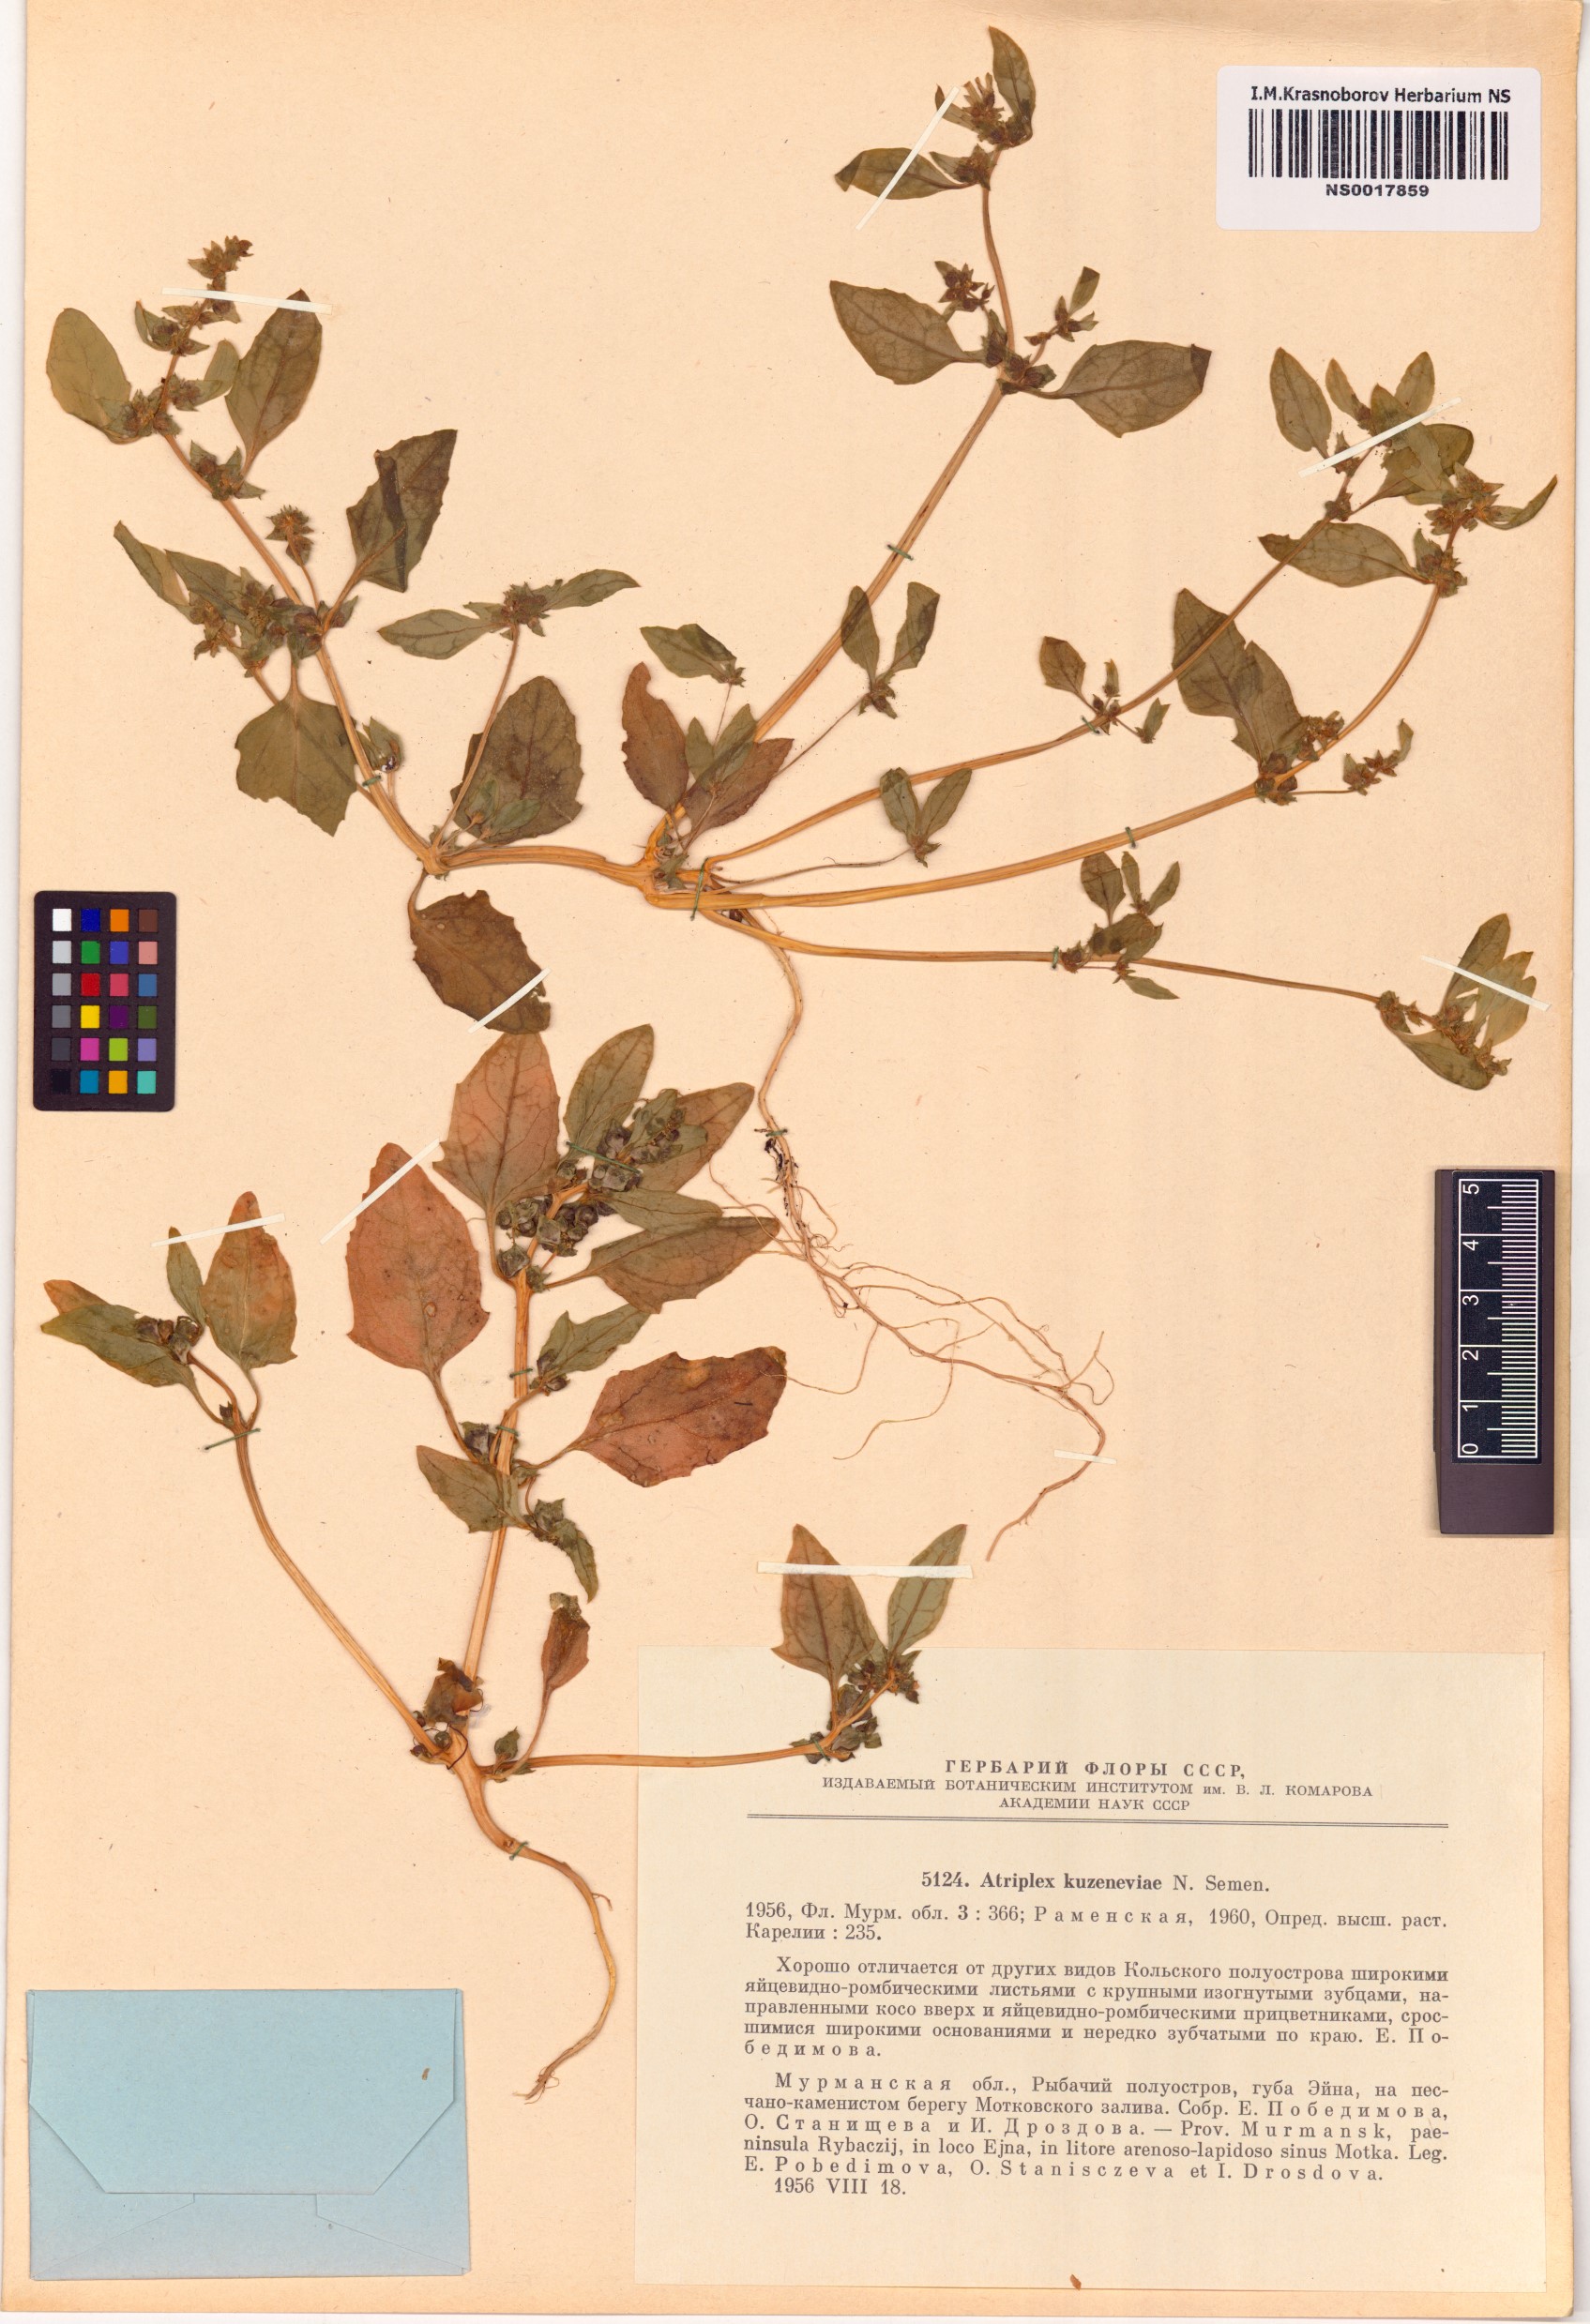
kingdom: Plantae
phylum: Tracheophyta
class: Magnoliopsida
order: Caryophyllales
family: Amaranthaceae
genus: Atriplex
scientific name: Atriplex nudicaulis
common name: Baltic orache
